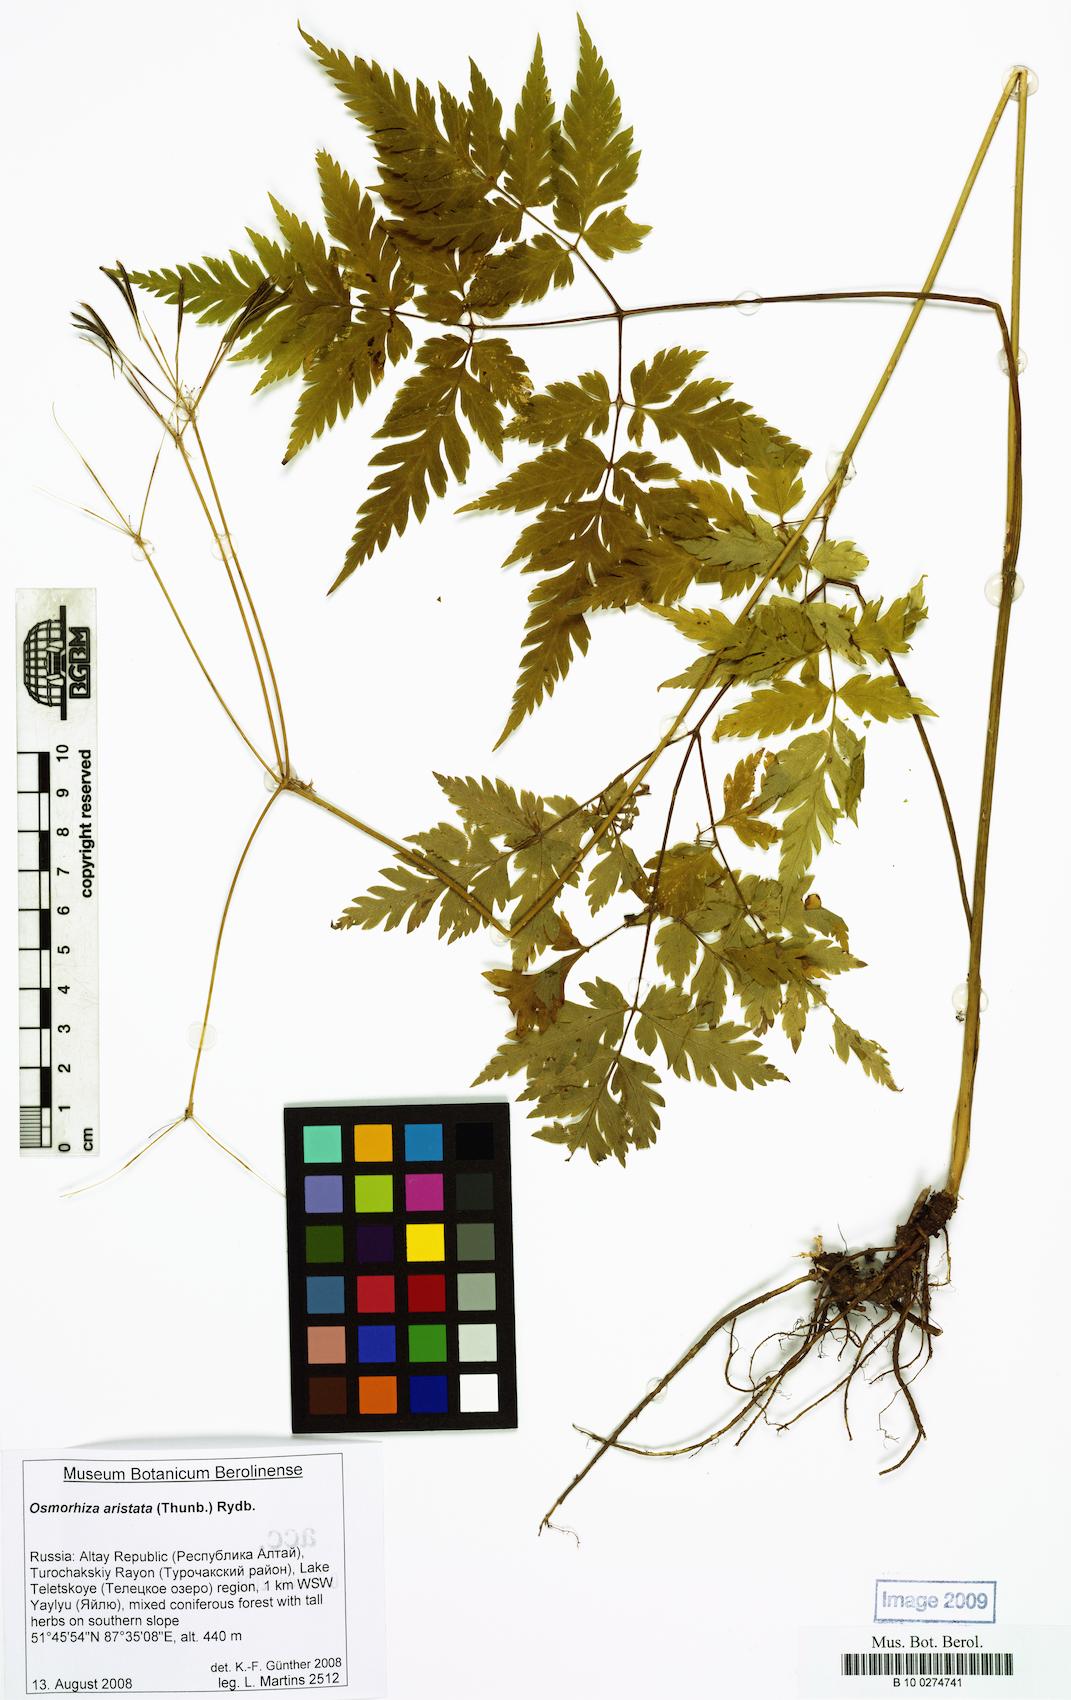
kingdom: Plantae
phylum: Tracheophyta
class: Magnoliopsida
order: Apiales
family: Apiaceae
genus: Osmorhiza
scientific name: Osmorhiza aristata
